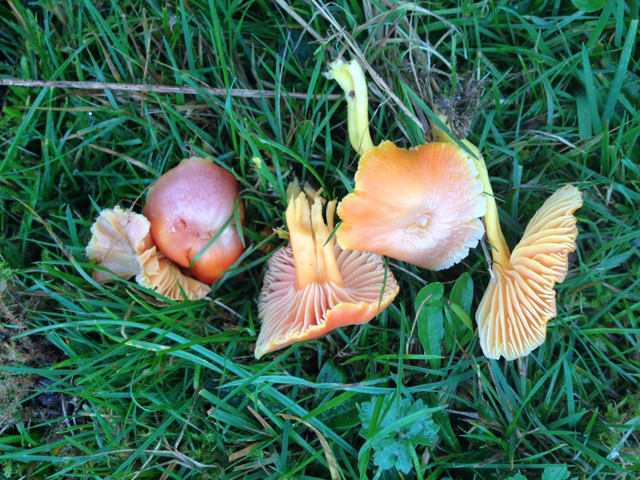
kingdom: Fungi
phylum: Basidiomycota
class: Agaricomycetes
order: Agaricales
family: Hygrophoraceae
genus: Hygrocybe
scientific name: Hygrocybe reidii
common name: honning-vokshat
